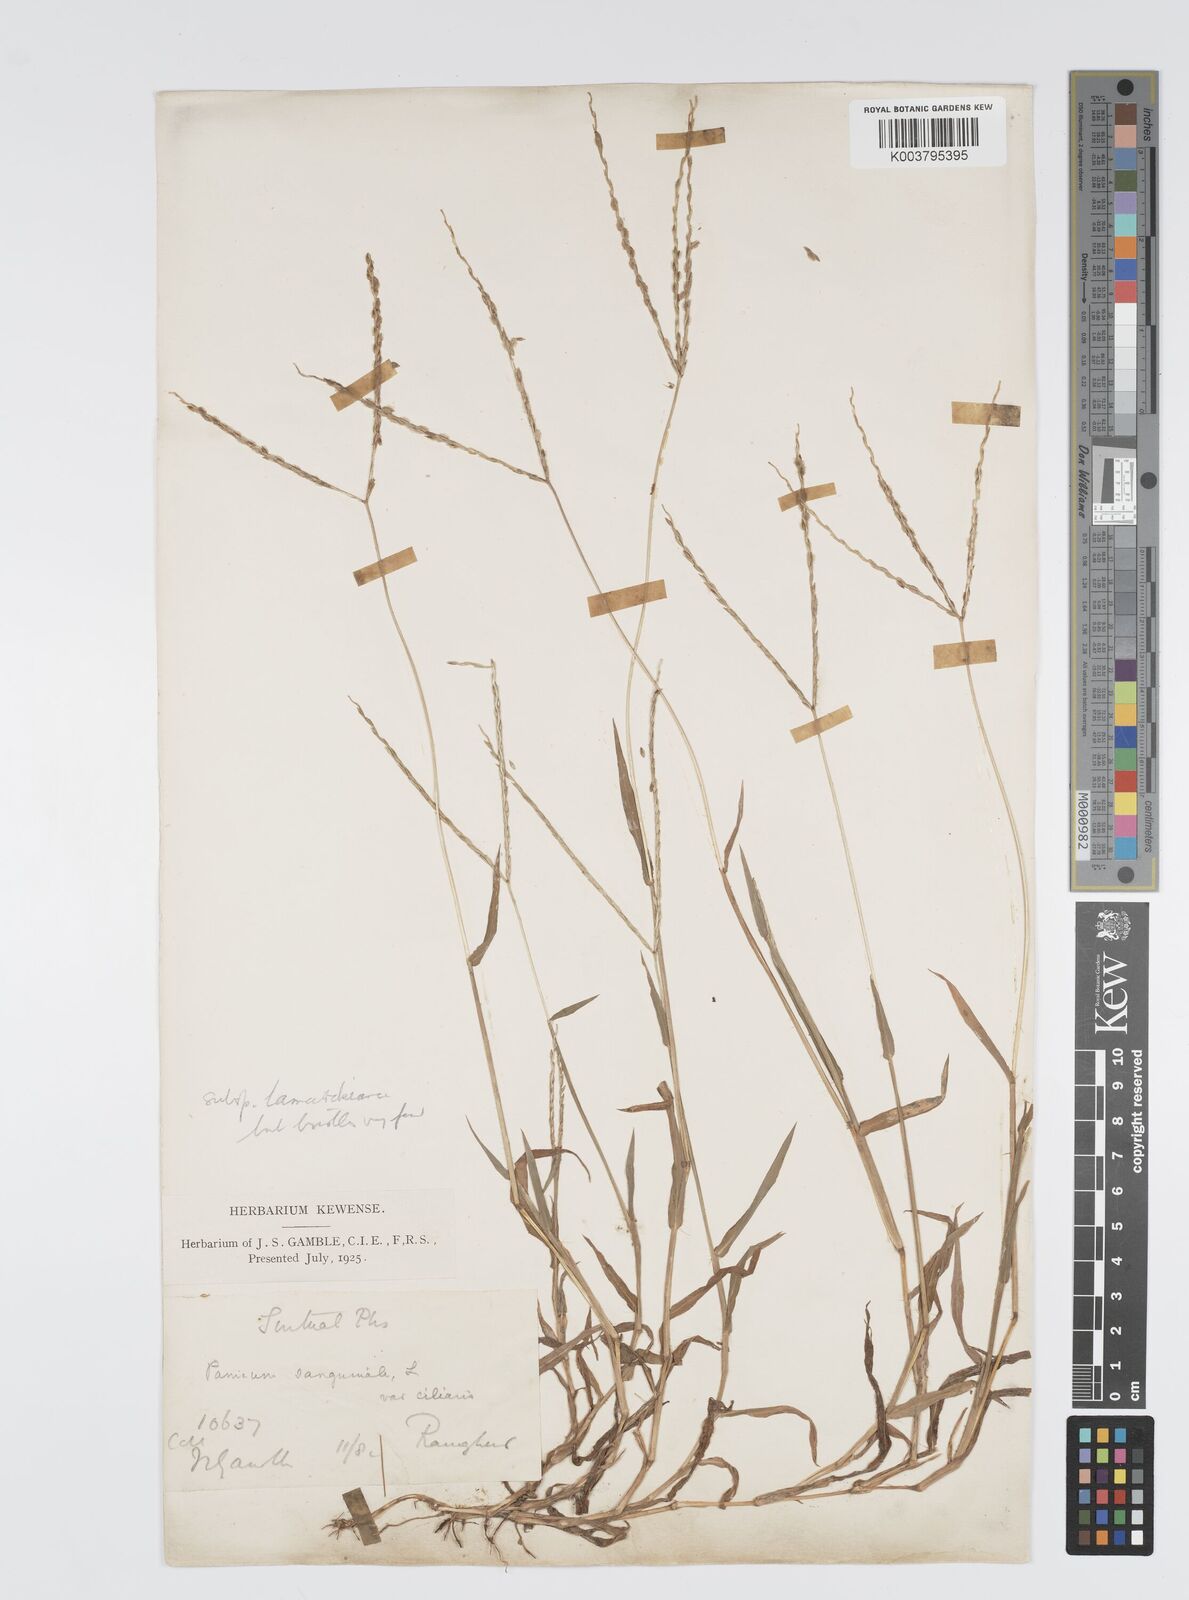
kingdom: Plantae
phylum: Tracheophyta
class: Liliopsida
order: Poales
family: Poaceae
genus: Digitaria
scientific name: Digitaria ciliaris
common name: Tropical finger-grass
